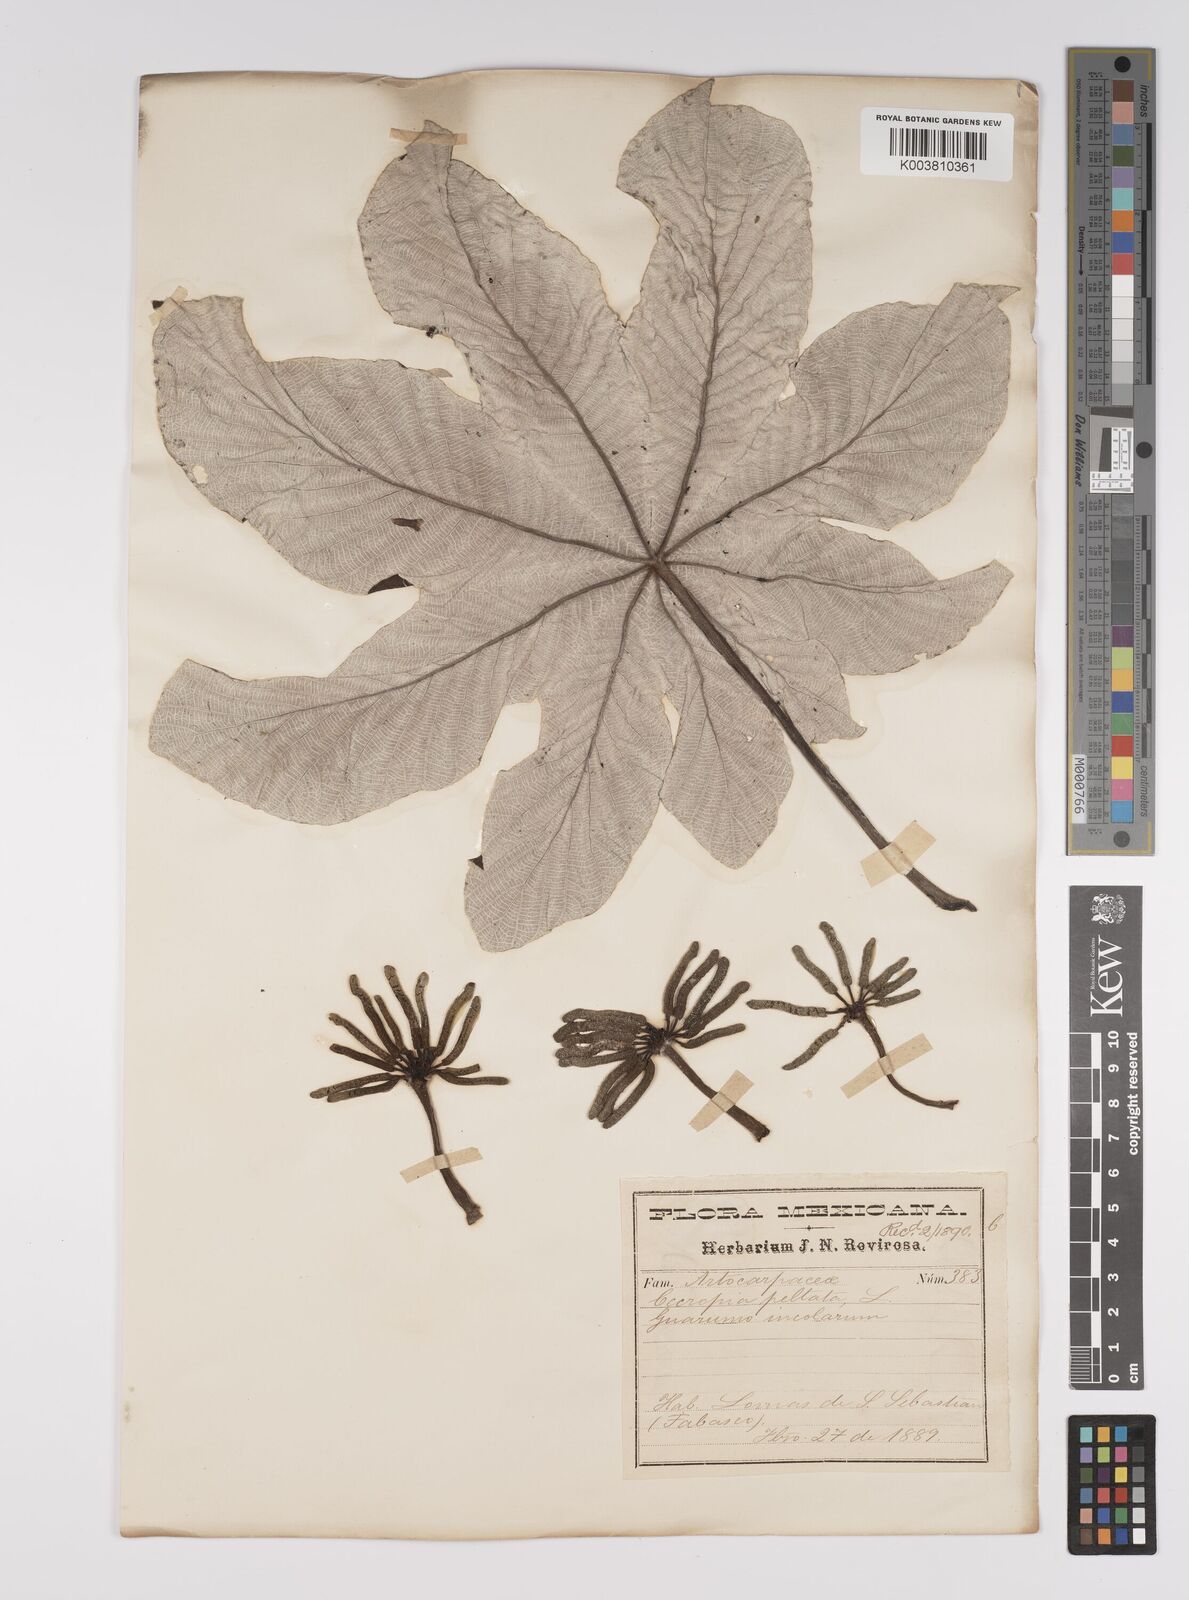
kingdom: Plantae
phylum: Tracheophyta
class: Magnoliopsida
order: Rosales
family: Urticaceae
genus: Cecropia
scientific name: Cecropia peltata
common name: Trumpet-tree
